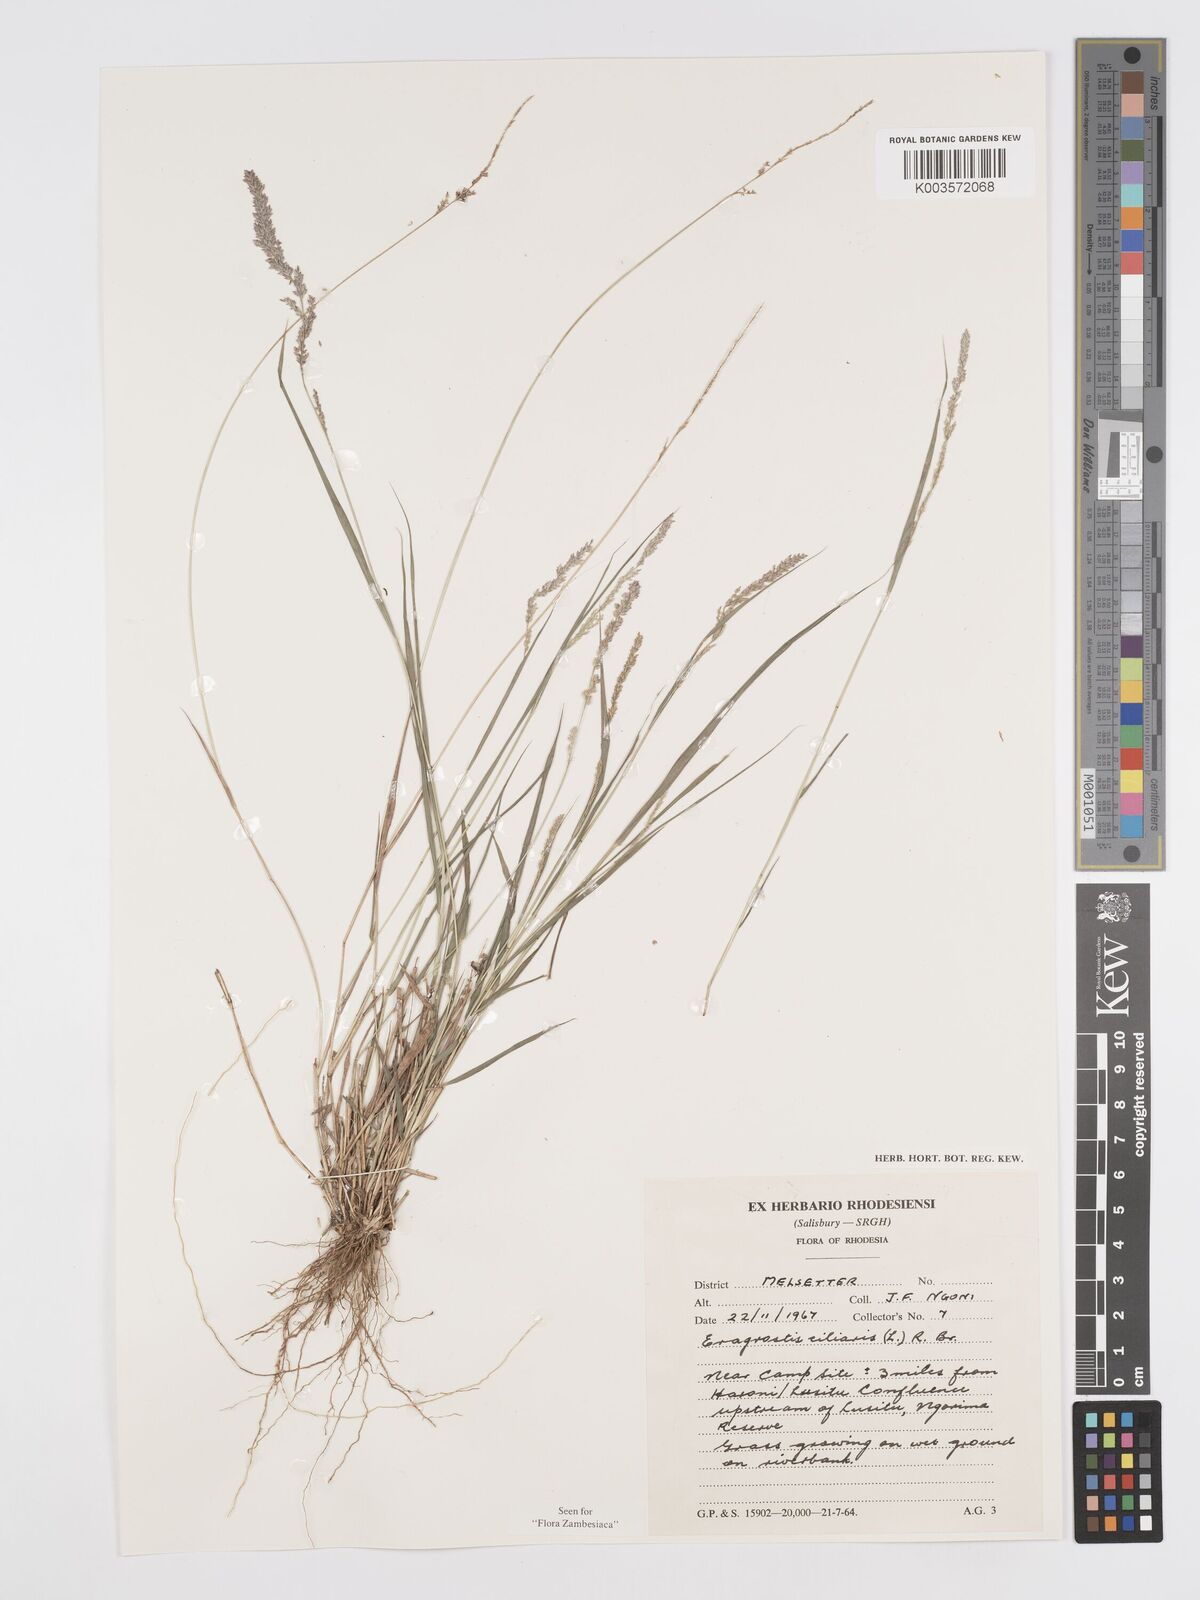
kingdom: Plantae
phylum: Tracheophyta
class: Liliopsida
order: Poales
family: Poaceae
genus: Eragrostis
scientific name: Eragrostis ciliaris
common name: Gophertail lovegrass
